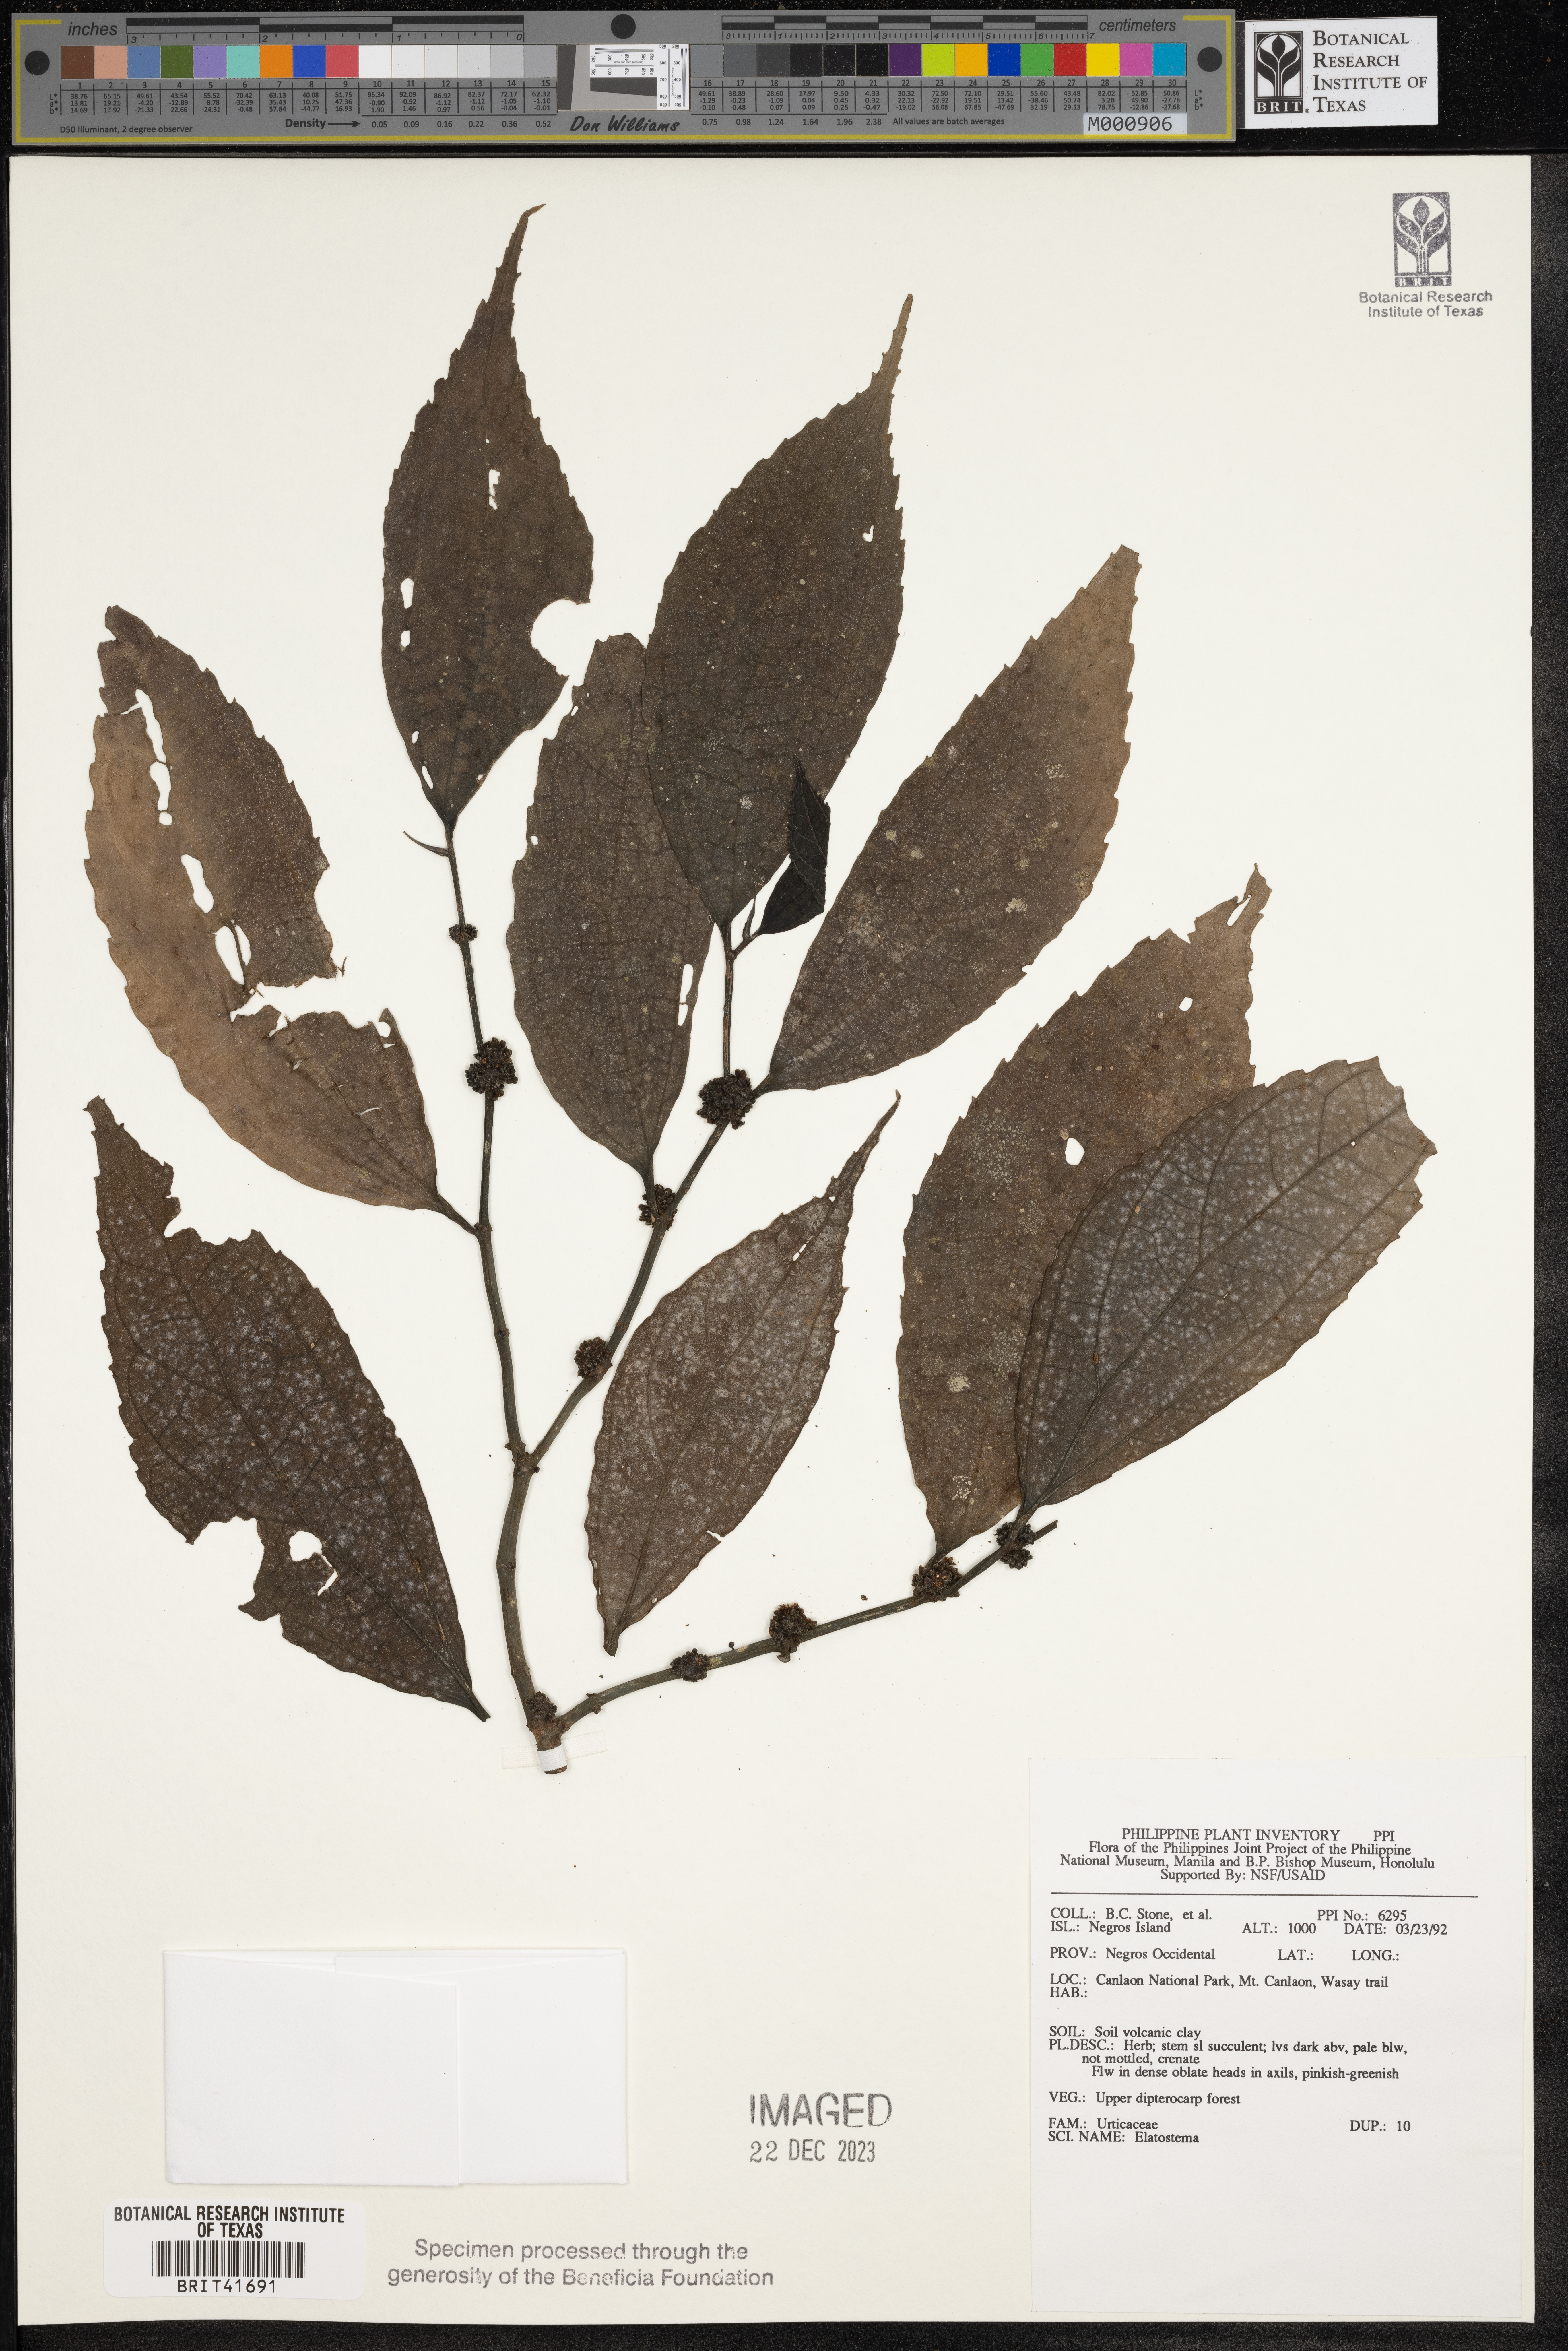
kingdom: Plantae
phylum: Tracheophyta
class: Magnoliopsida
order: Rosales
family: Urticaceae
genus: Elatostema
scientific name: Elatostema
